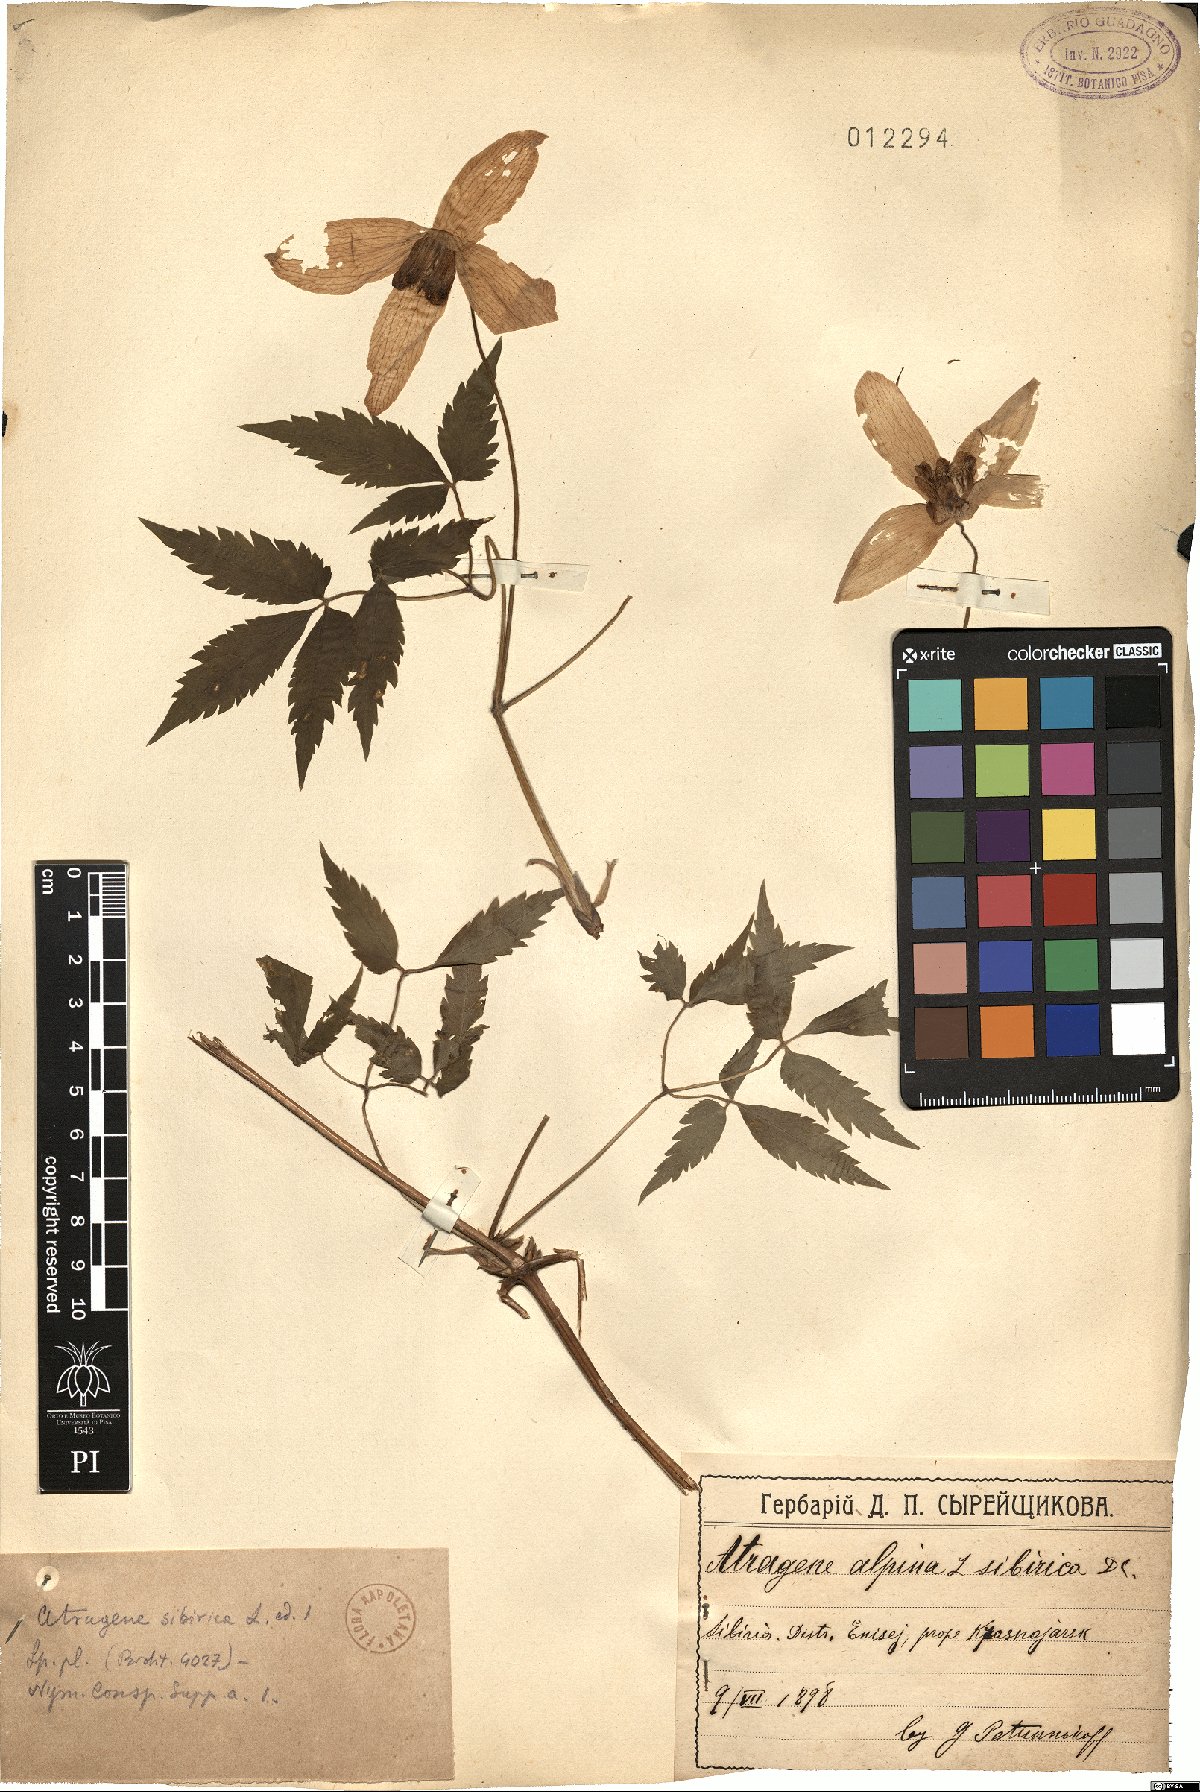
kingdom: Plantae
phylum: Tracheophyta
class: Magnoliopsida
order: Ranunculales
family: Ranunculaceae
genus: Clematis
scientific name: Clematis sibirica
